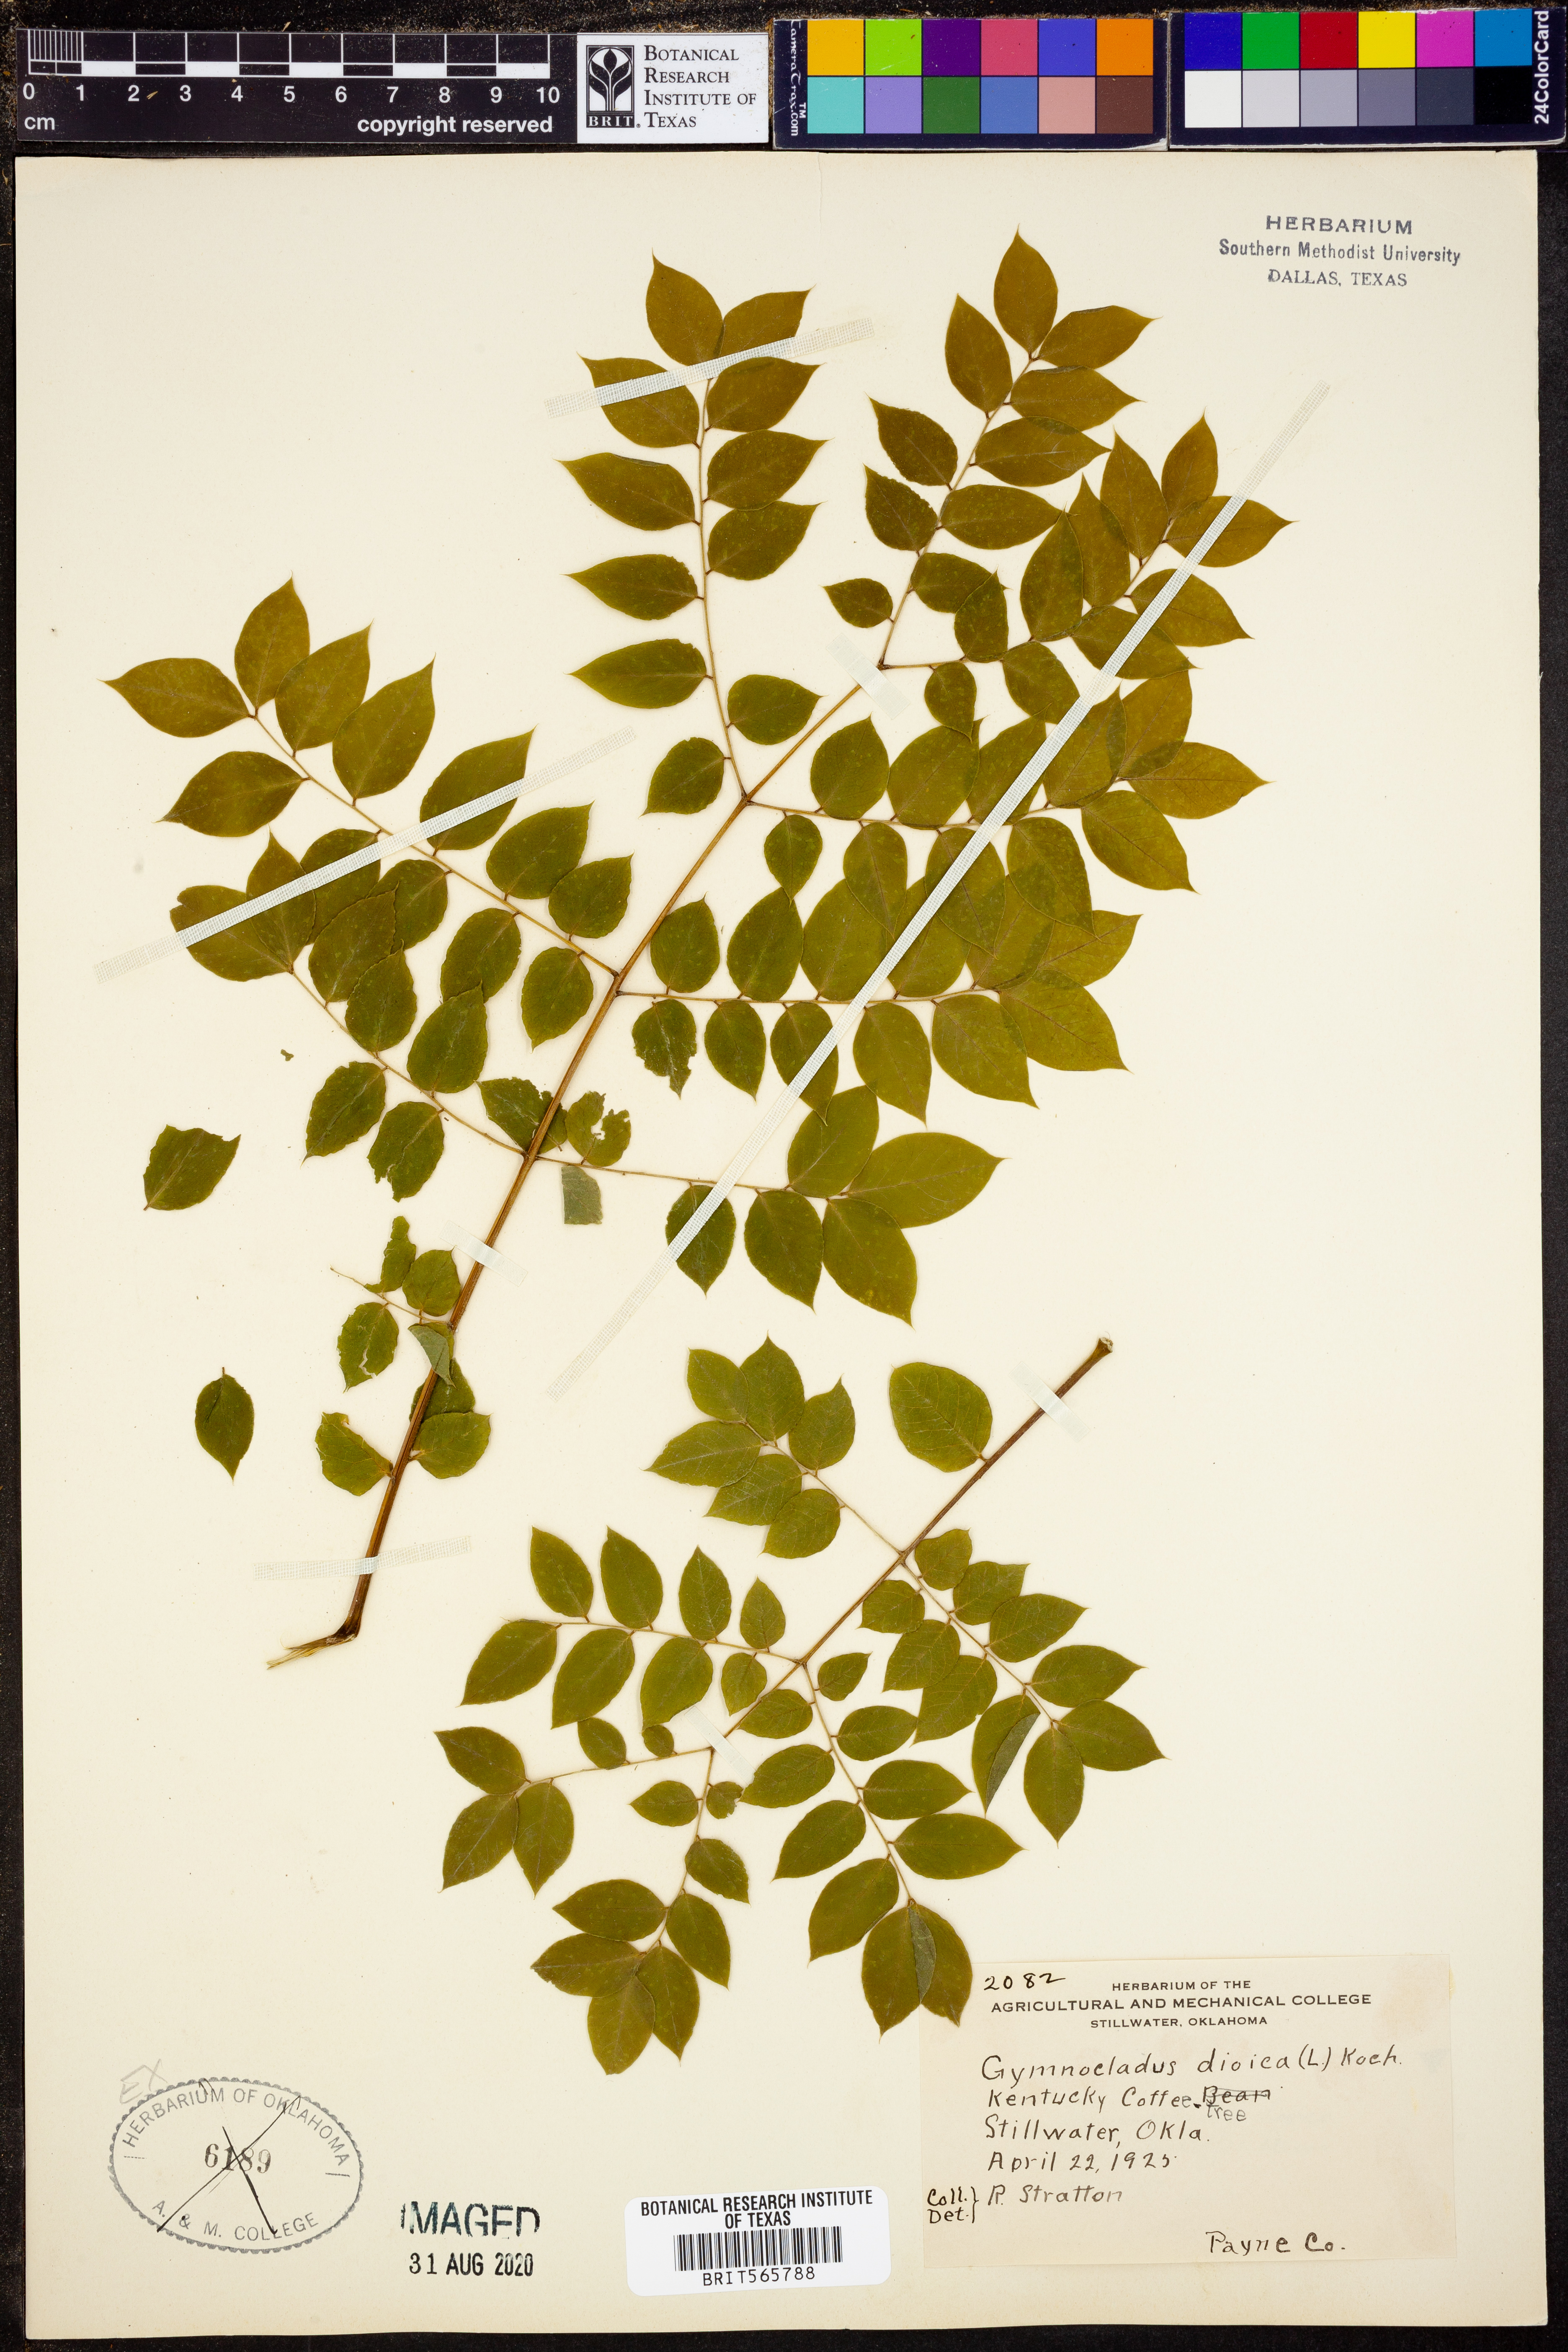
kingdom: Plantae
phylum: Tracheophyta
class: Magnoliopsida
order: Fabales
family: Fabaceae
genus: Gymnocladus
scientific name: Gymnocladus dioicus
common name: Kentucky coffee-tree
